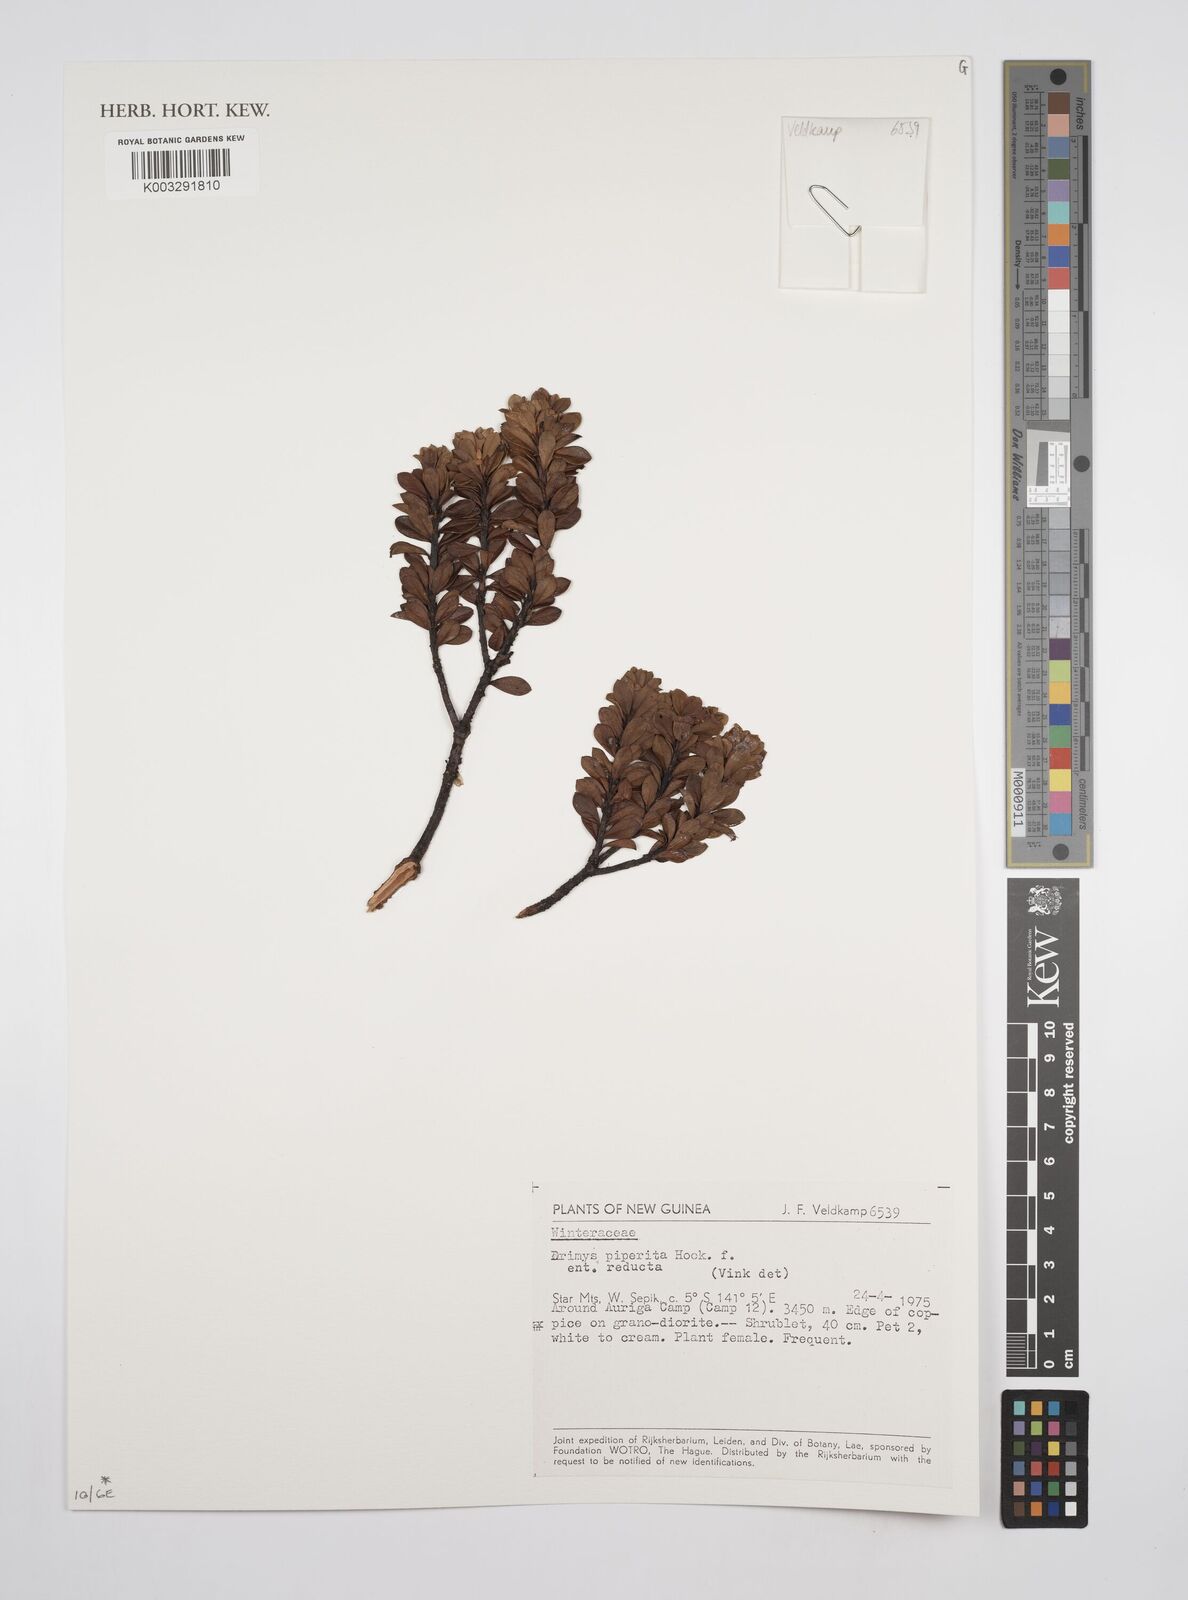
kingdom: Plantae
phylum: Tracheophyta
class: Magnoliopsida
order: Canellales
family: Winteraceae
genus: Drimys
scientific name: Drimys piperita
